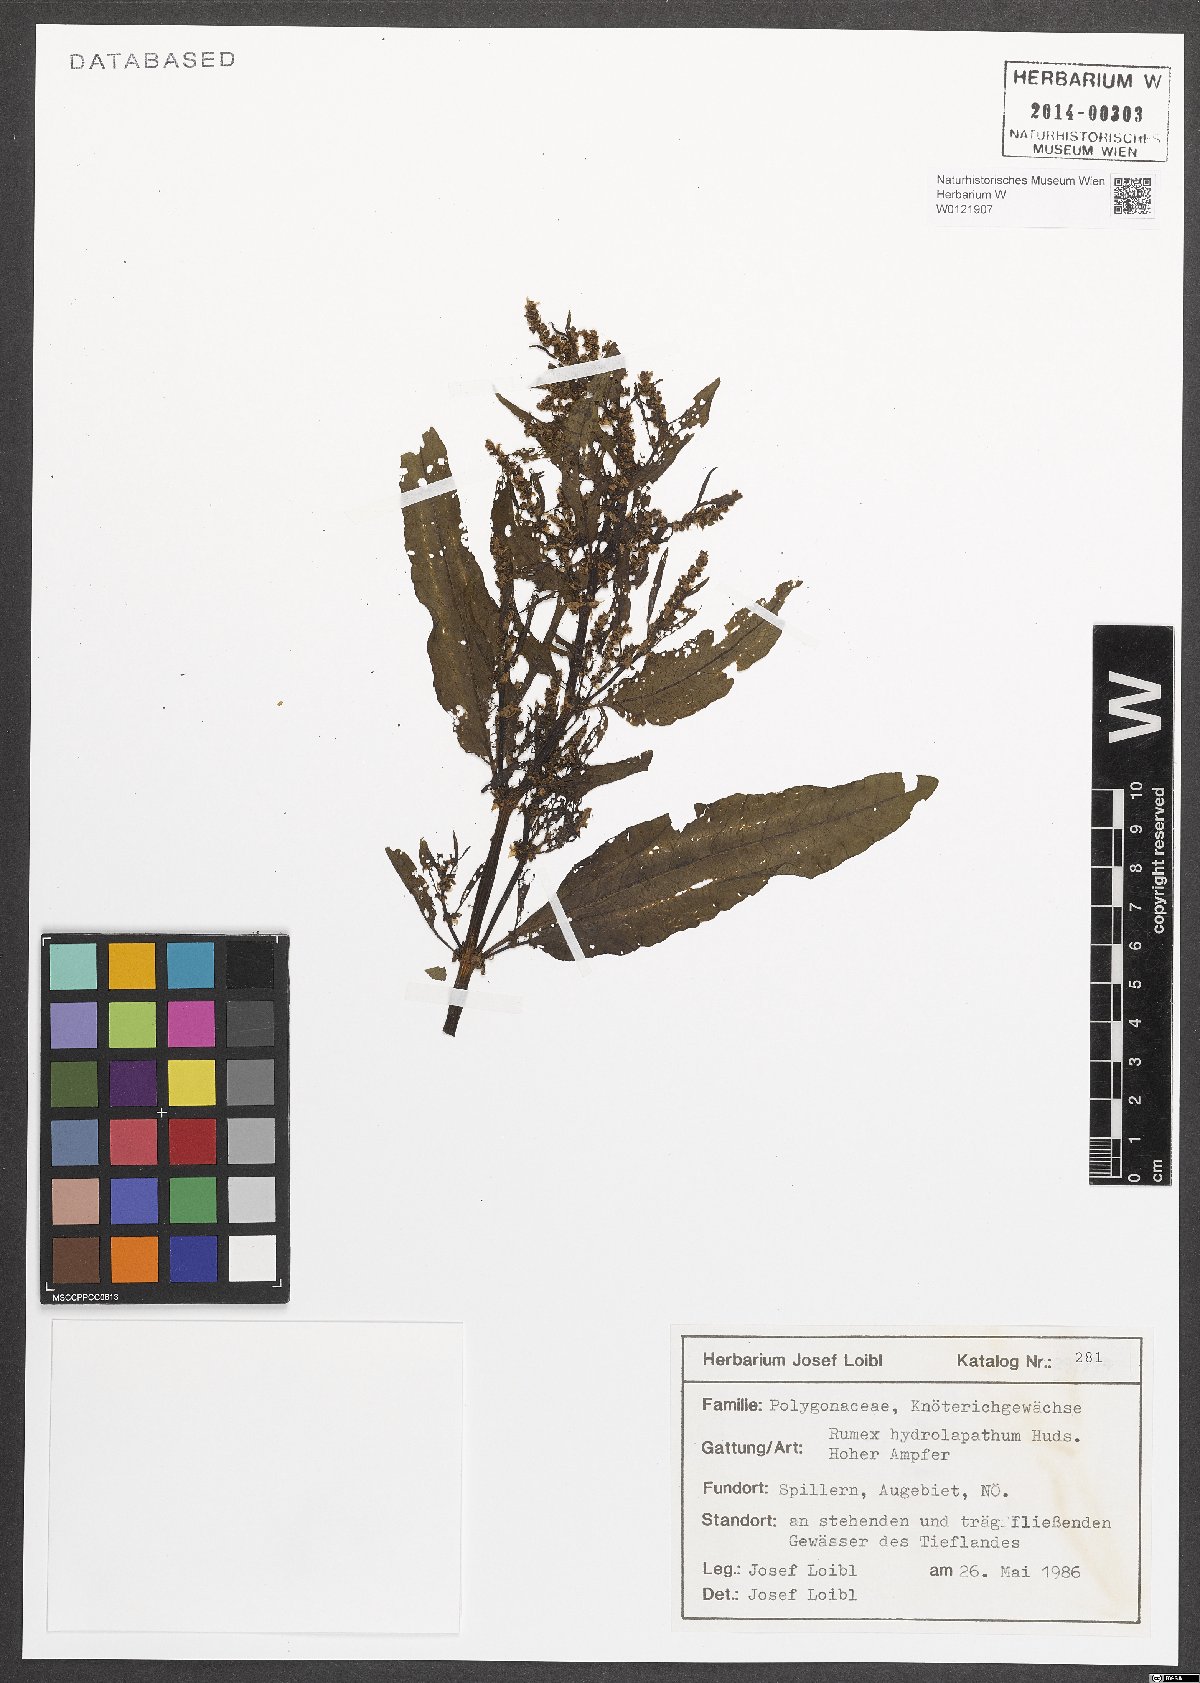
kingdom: Plantae
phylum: Tracheophyta
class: Magnoliopsida
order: Caryophyllales
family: Polygonaceae
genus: Rumex
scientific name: Rumex hydrolapathum
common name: Water dock
